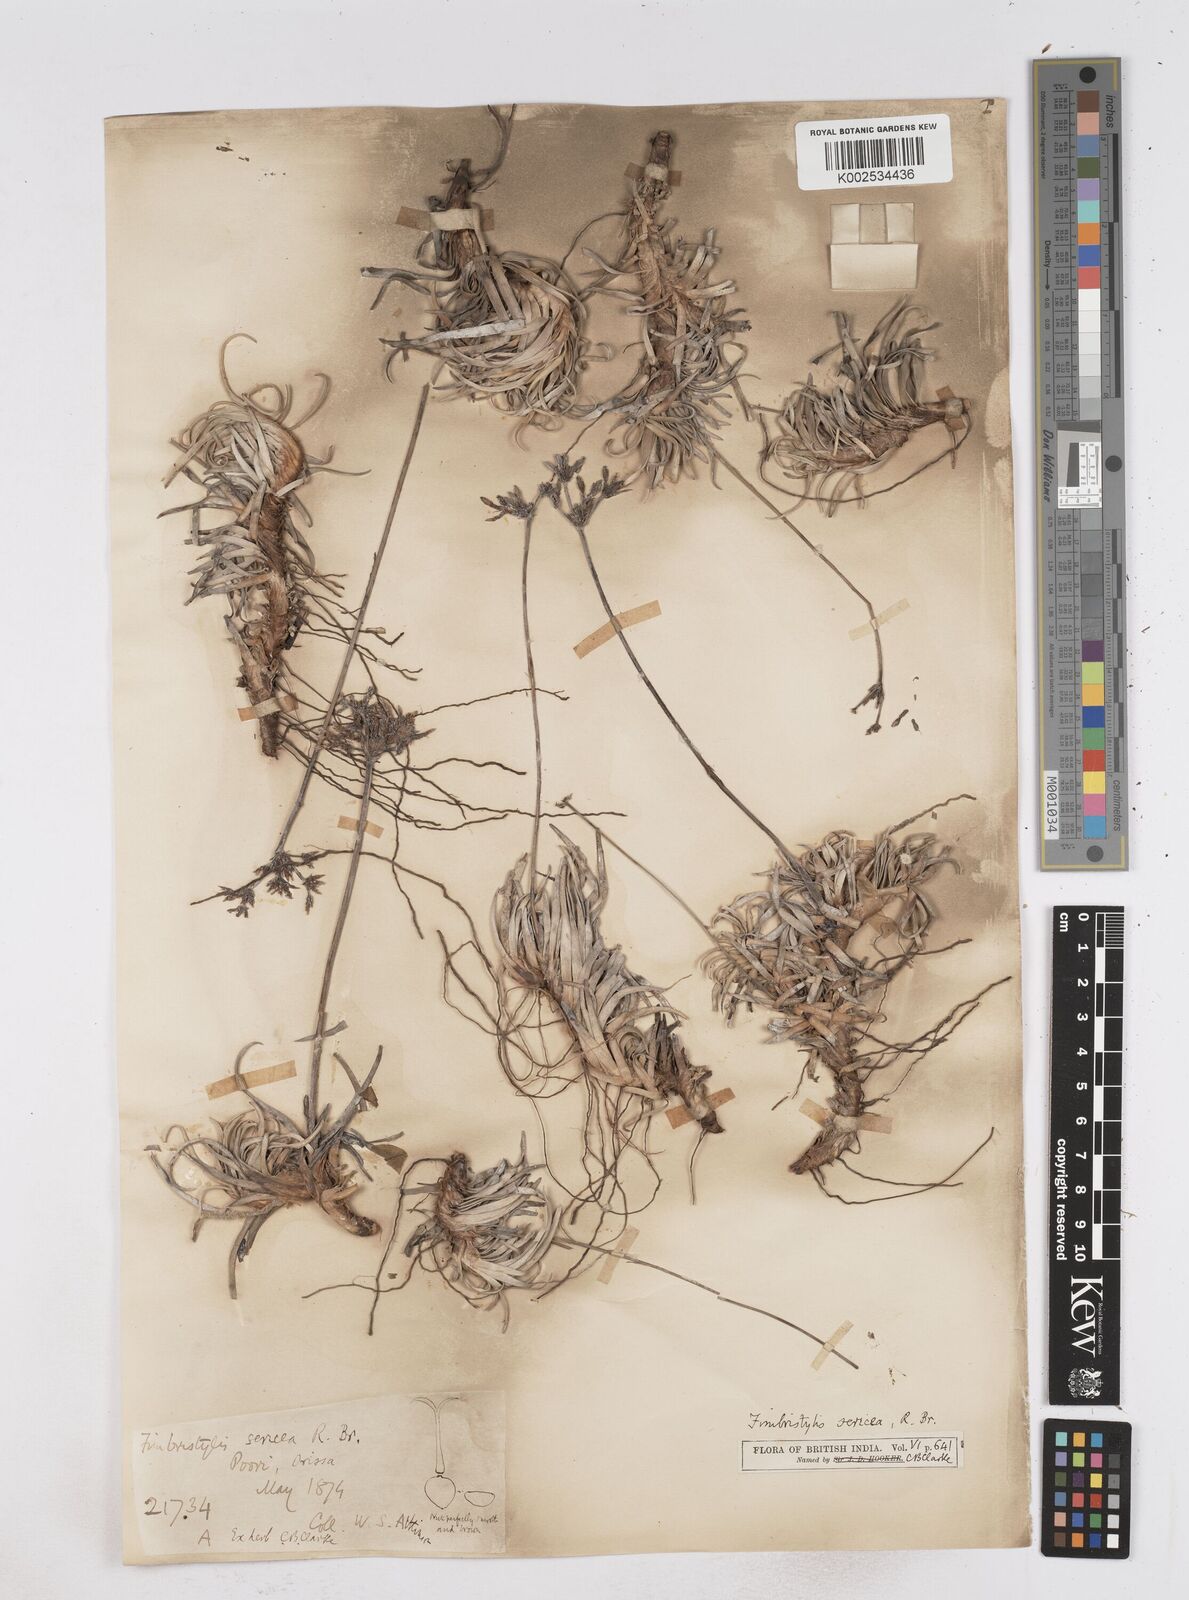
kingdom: Plantae
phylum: Tracheophyta
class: Liliopsida
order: Poales
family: Cyperaceae
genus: Fimbristylis
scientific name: Fimbristylis sericea
